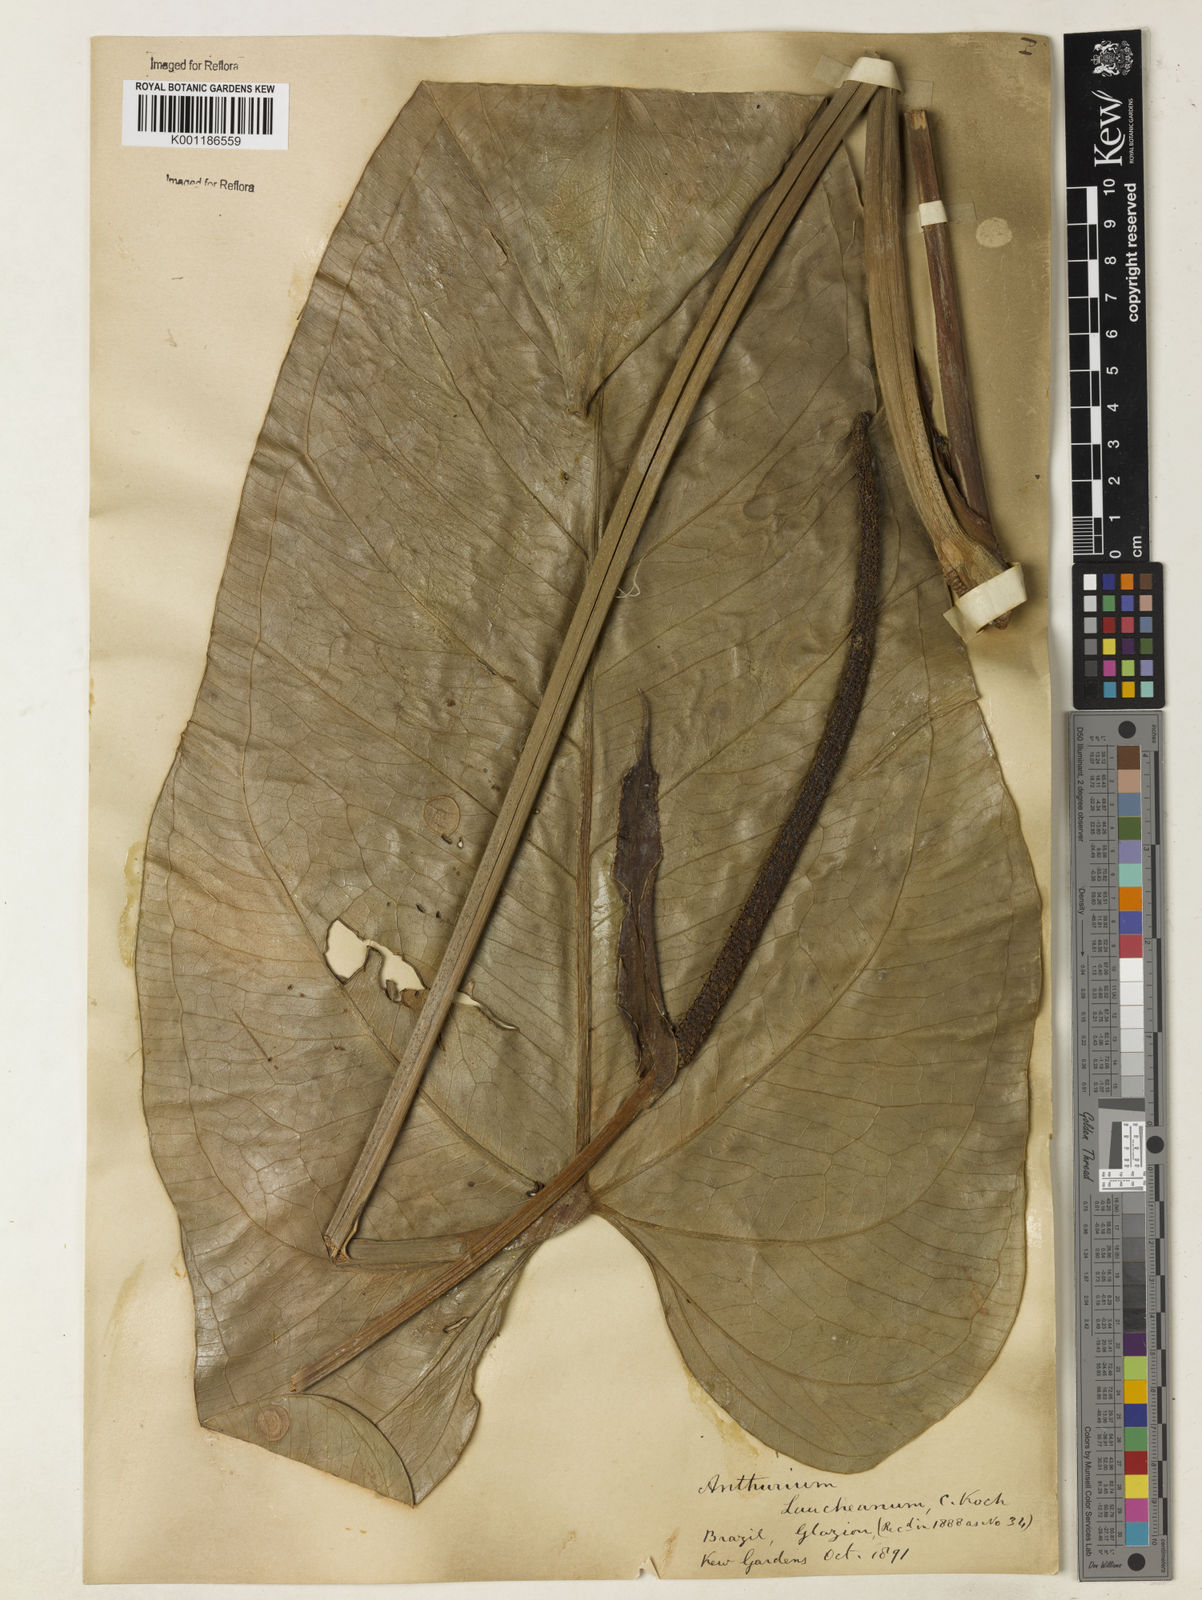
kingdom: Plantae
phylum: Tracheophyta
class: Liliopsida
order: Alismatales
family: Araceae
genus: Anthurium
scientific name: Anthurium augustinum
